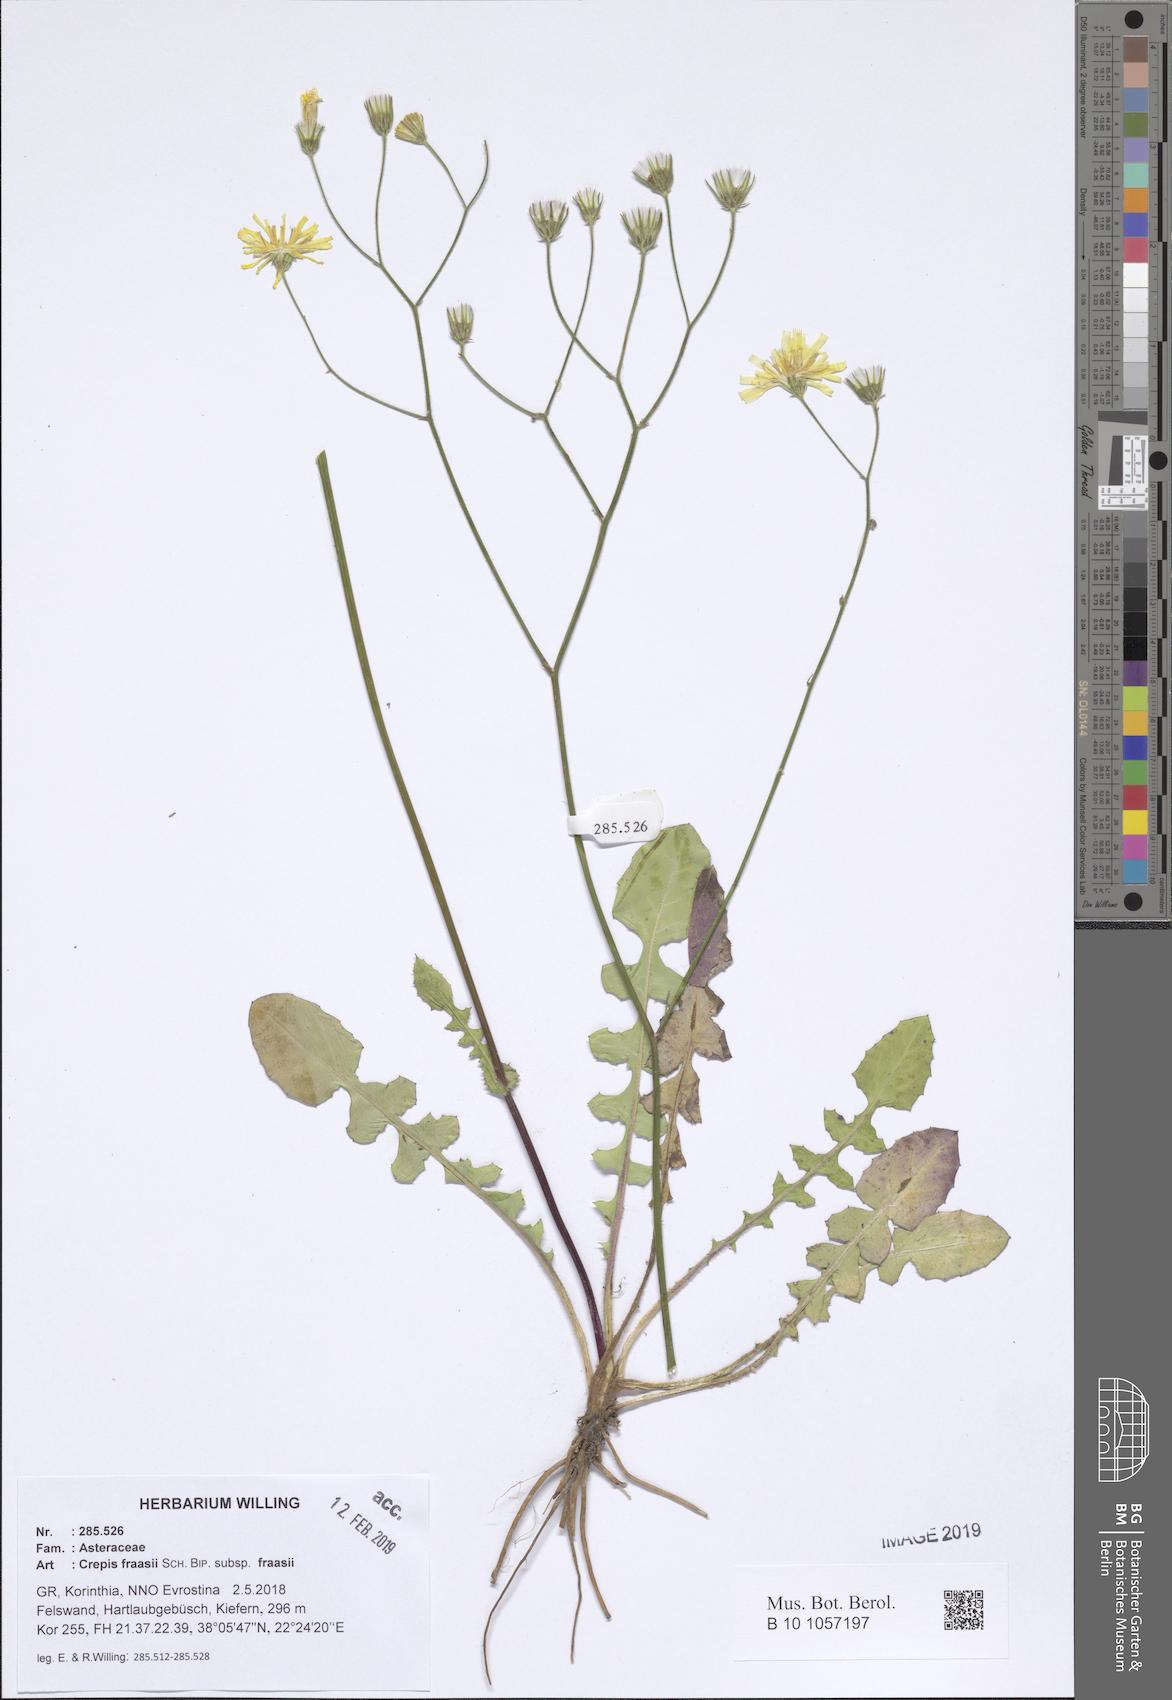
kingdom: Plantae
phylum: Tracheophyta
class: Magnoliopsida
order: Asterales
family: Asteraceae
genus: Crepis
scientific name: Crepis fraasii
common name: Hawk's-beard
